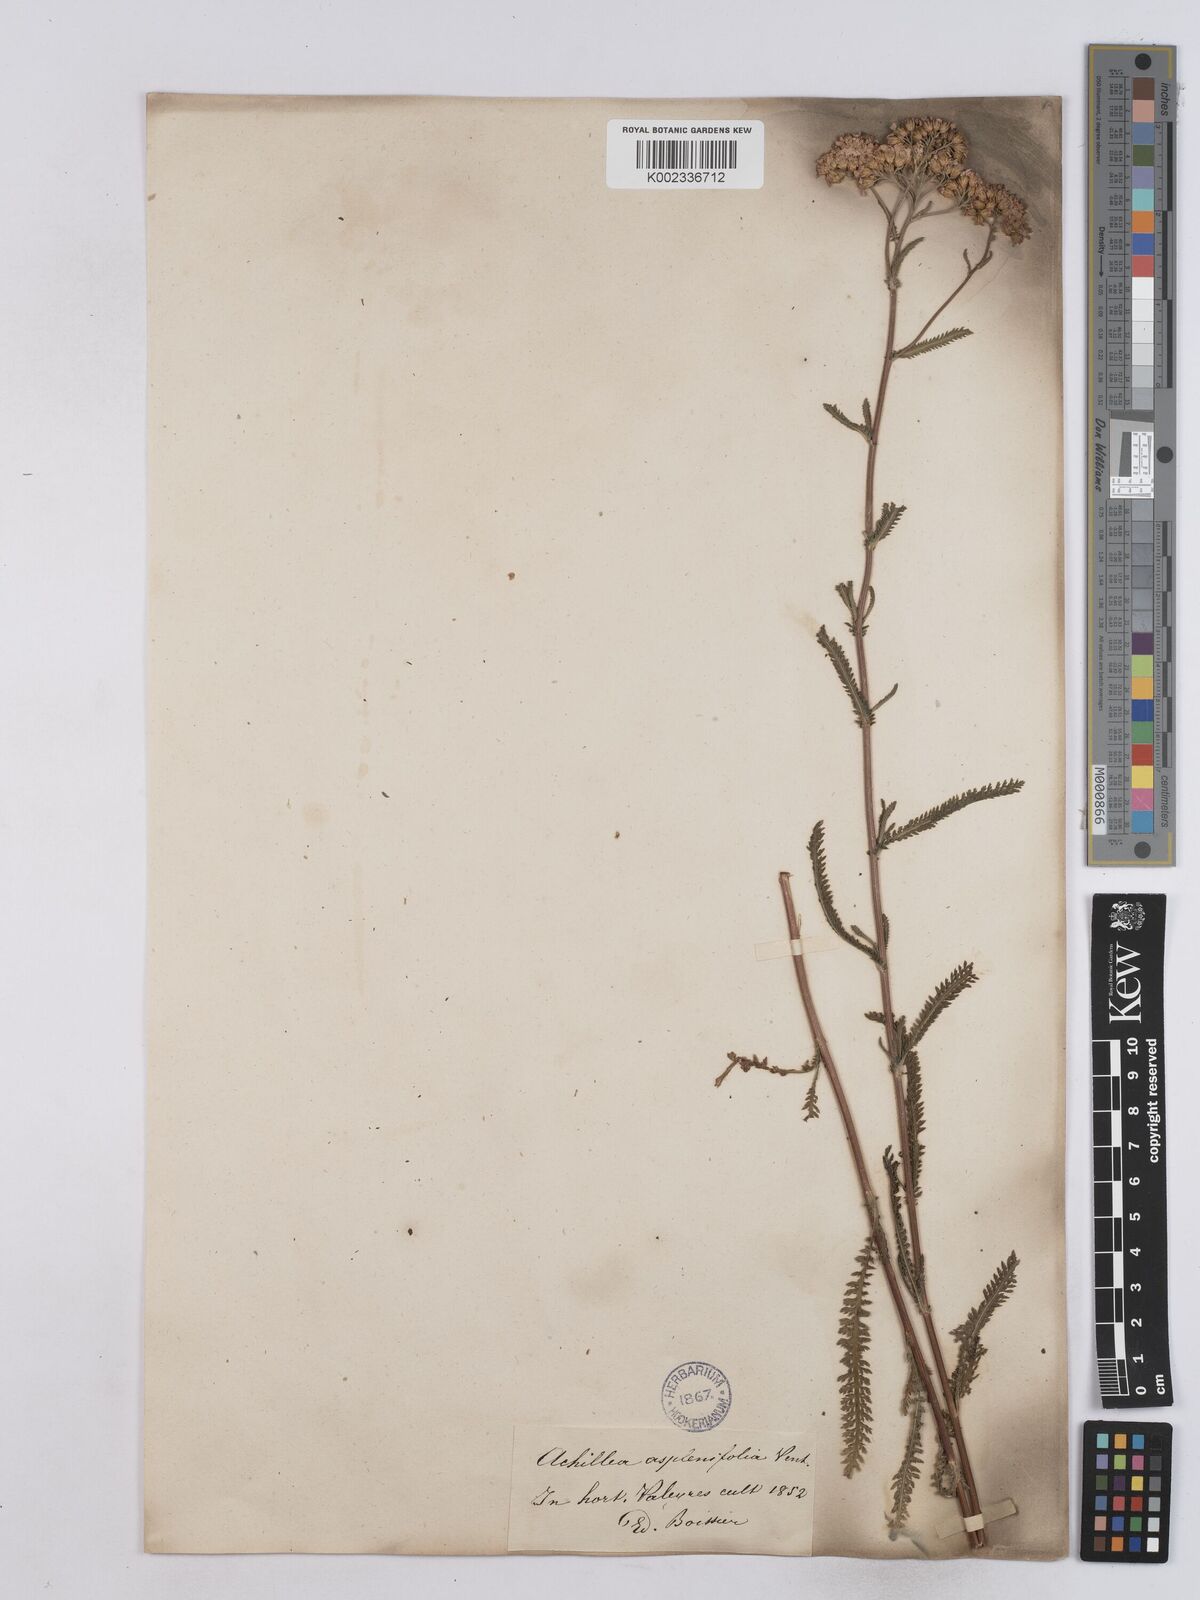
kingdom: Plantae
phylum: Tracheophyta
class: Magnoliopsida
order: Asterales
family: Asteraceae
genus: Achillea
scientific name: Achillea aspleniifolia
